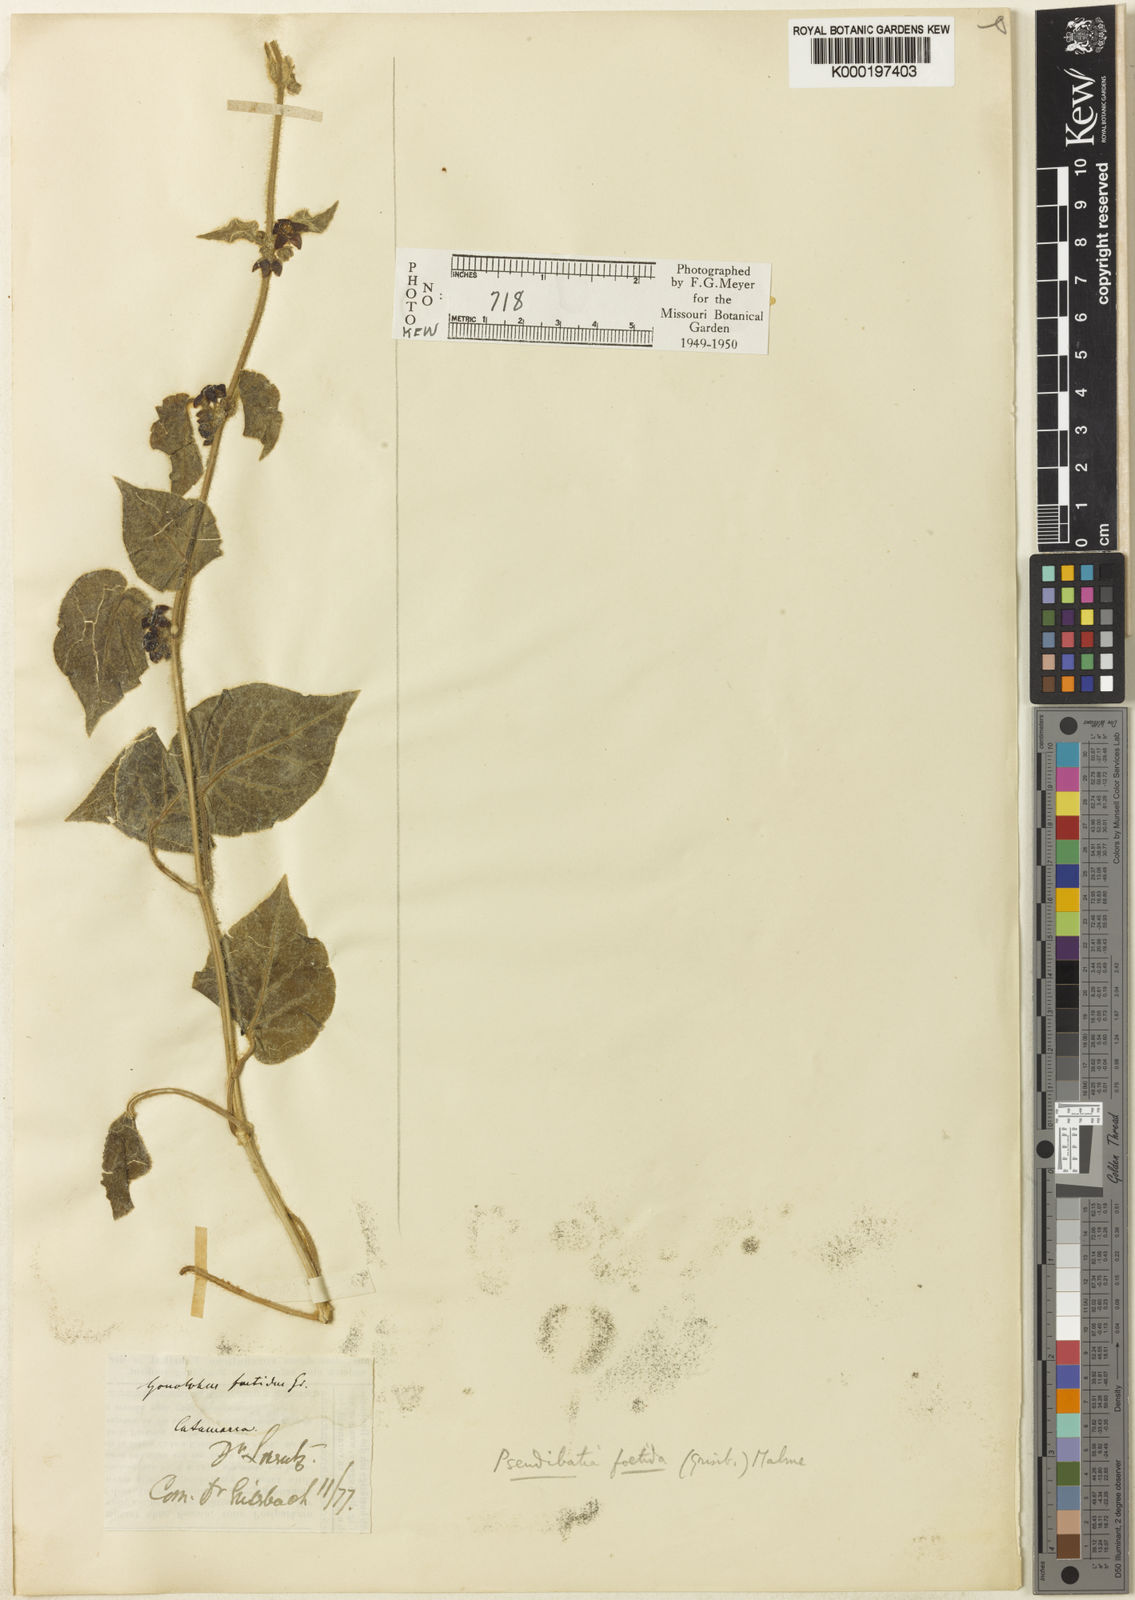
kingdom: Plantae
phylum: Tracheophyta
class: Magnoliopsida
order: Gentianales
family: Apocynaceae
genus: Ibatia
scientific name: Ibatia
